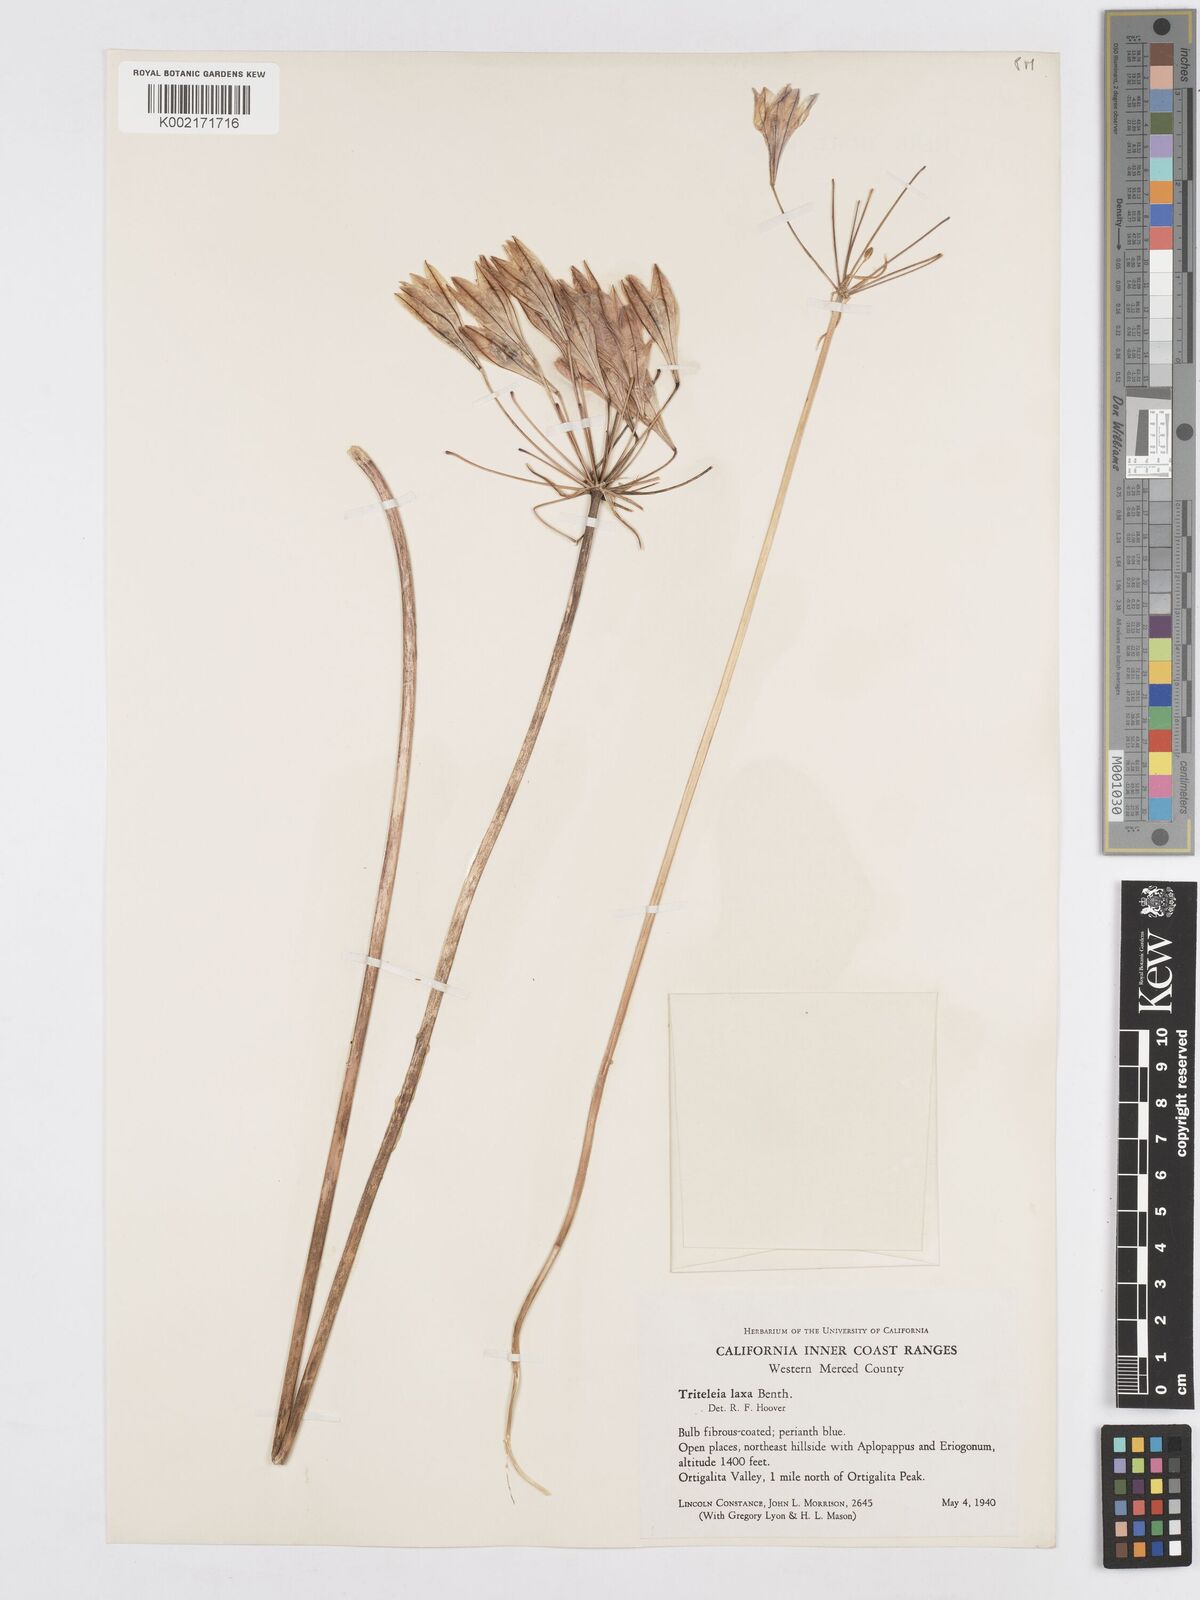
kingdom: Plantae
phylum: Tracheophyta
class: Liliopsida
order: Asparagales
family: Asparagaceae
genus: Triteleia
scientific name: Triteleia laxa
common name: Triplet-lily
